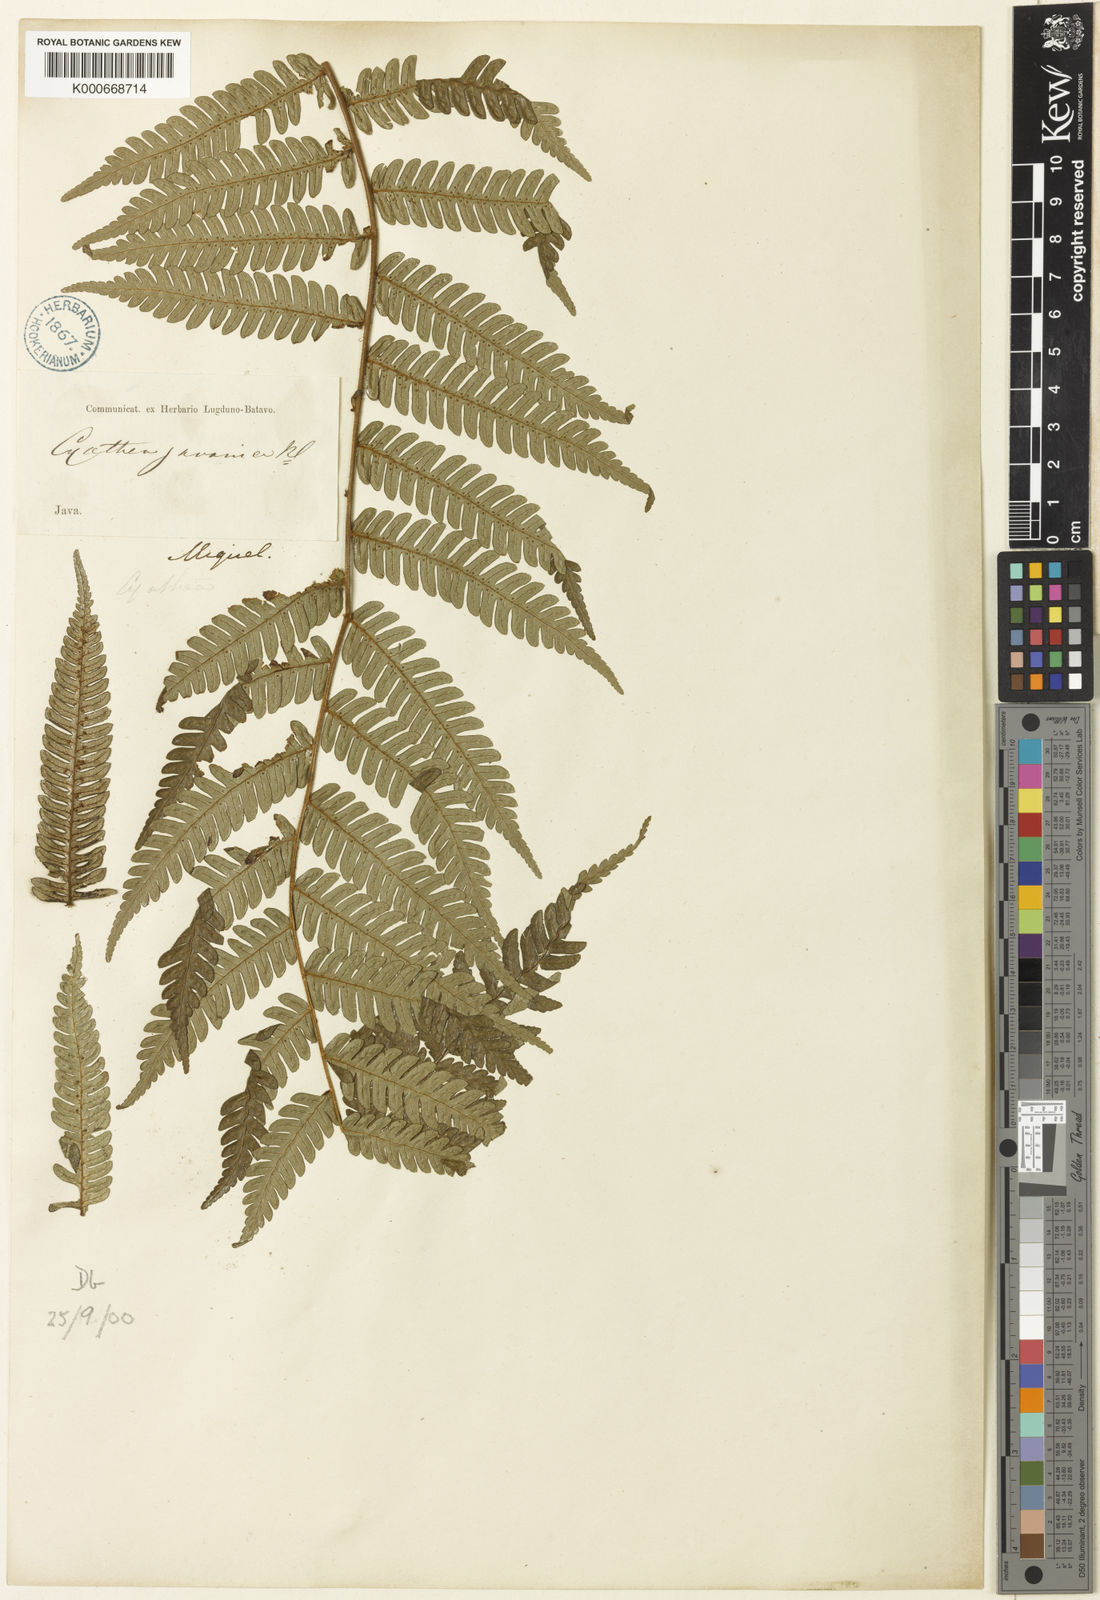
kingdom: Plantae
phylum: Tracheophyta
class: Polypodiopsida
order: Cyatheales
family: Cyatheaceae
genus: Alsophila
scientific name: Alsophila javanica
